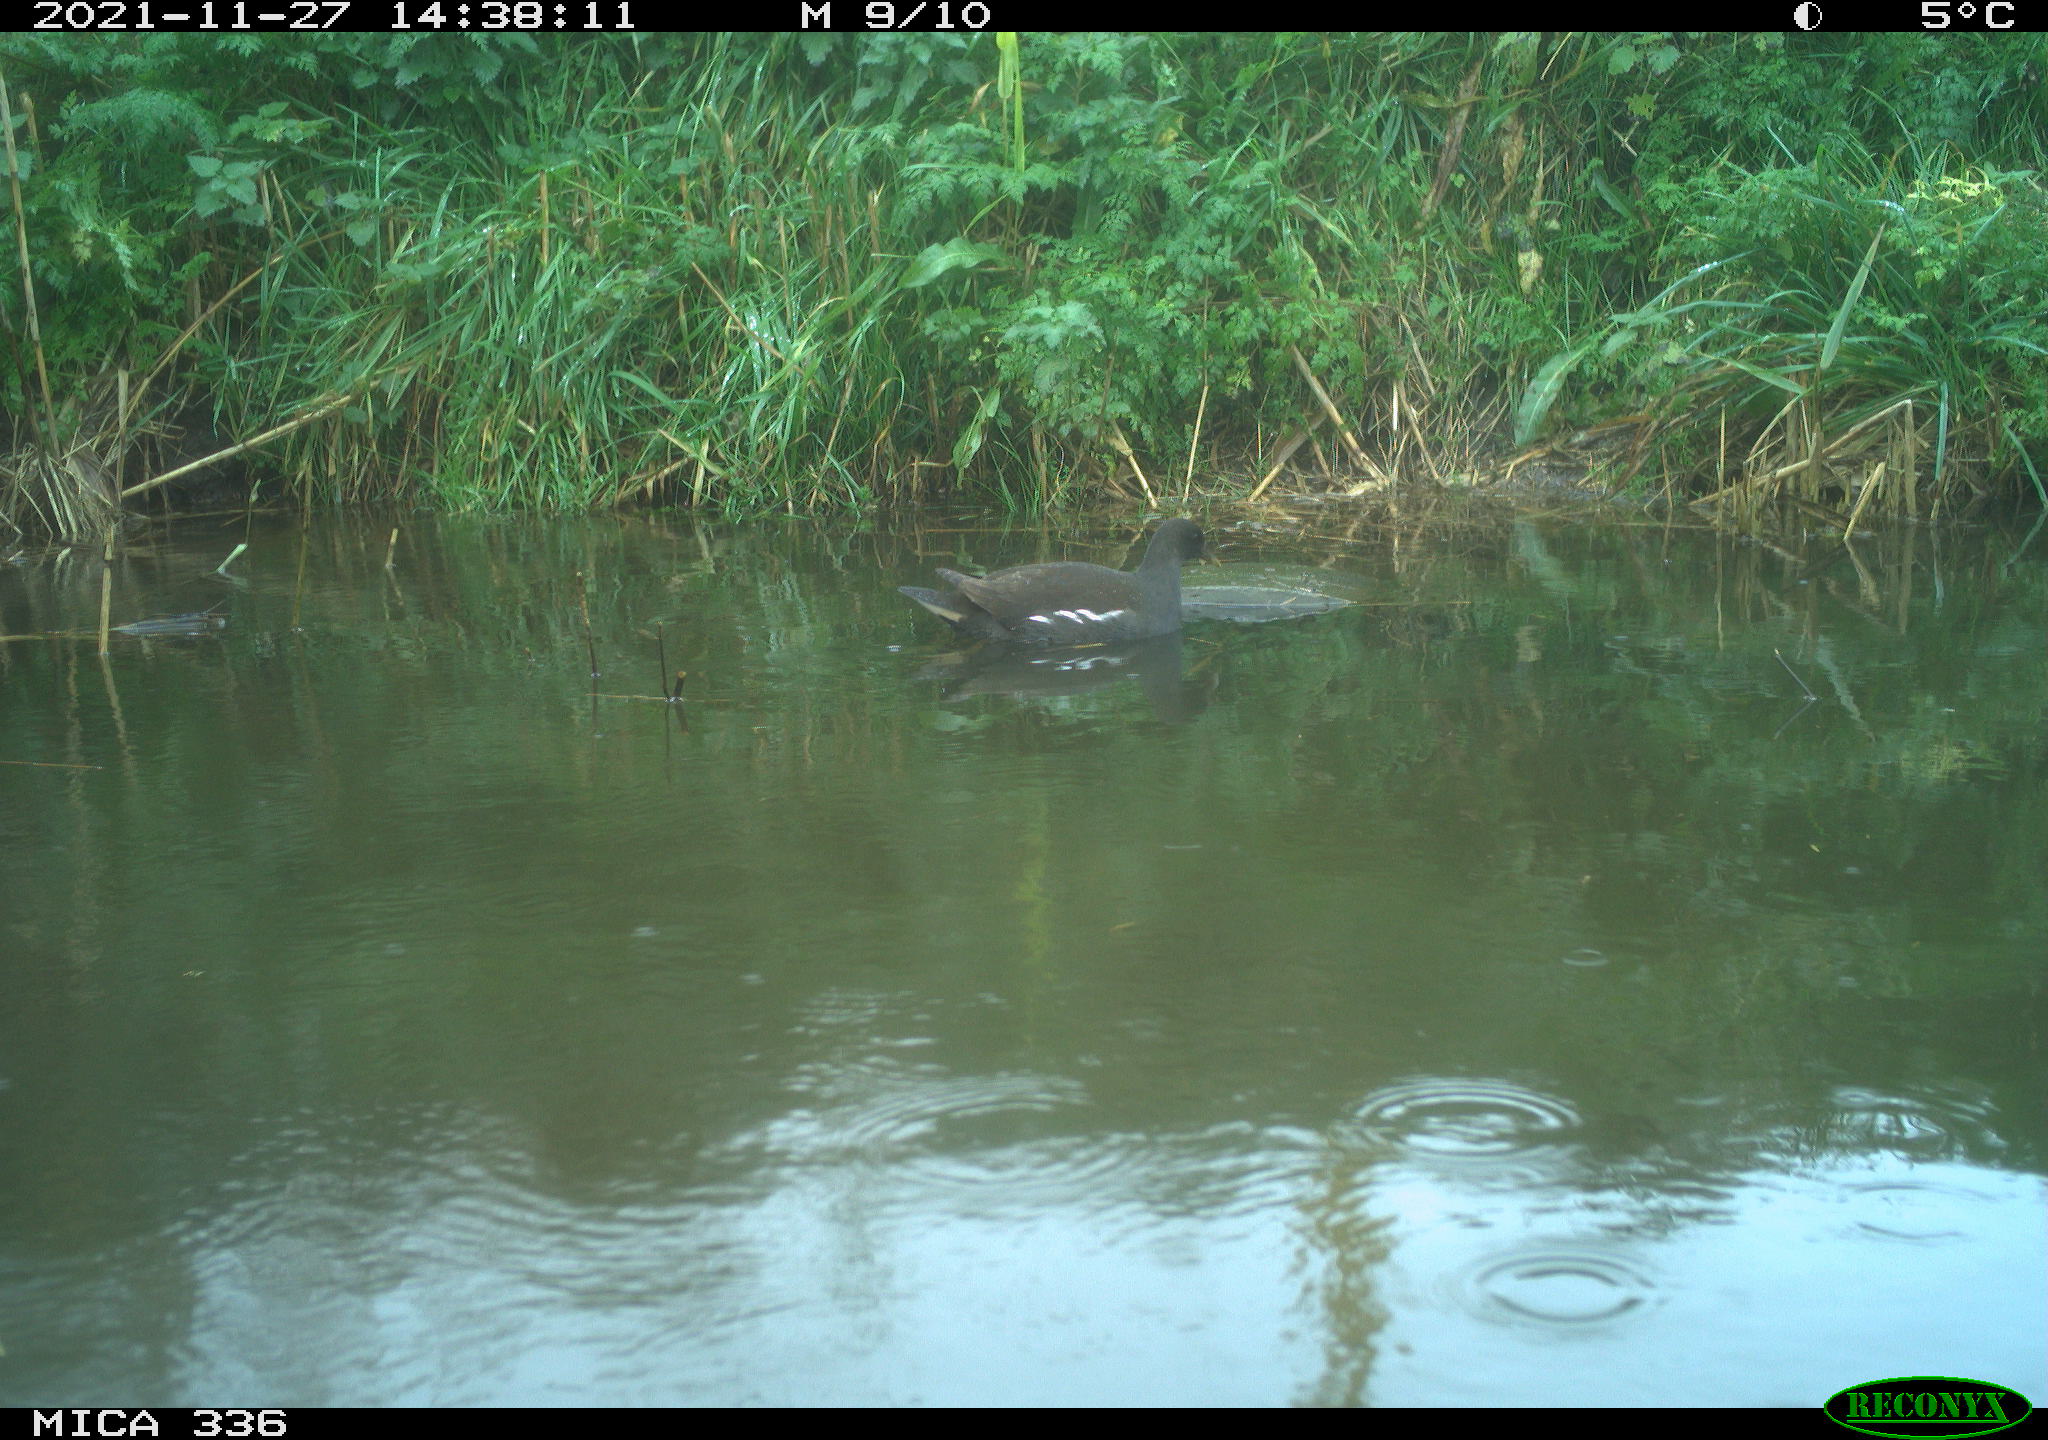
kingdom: Animalia
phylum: Chordata
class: Aves
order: Gruiformes
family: Rallidae
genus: Gallinula
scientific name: Gallinula chloropus
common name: Common moorhen
